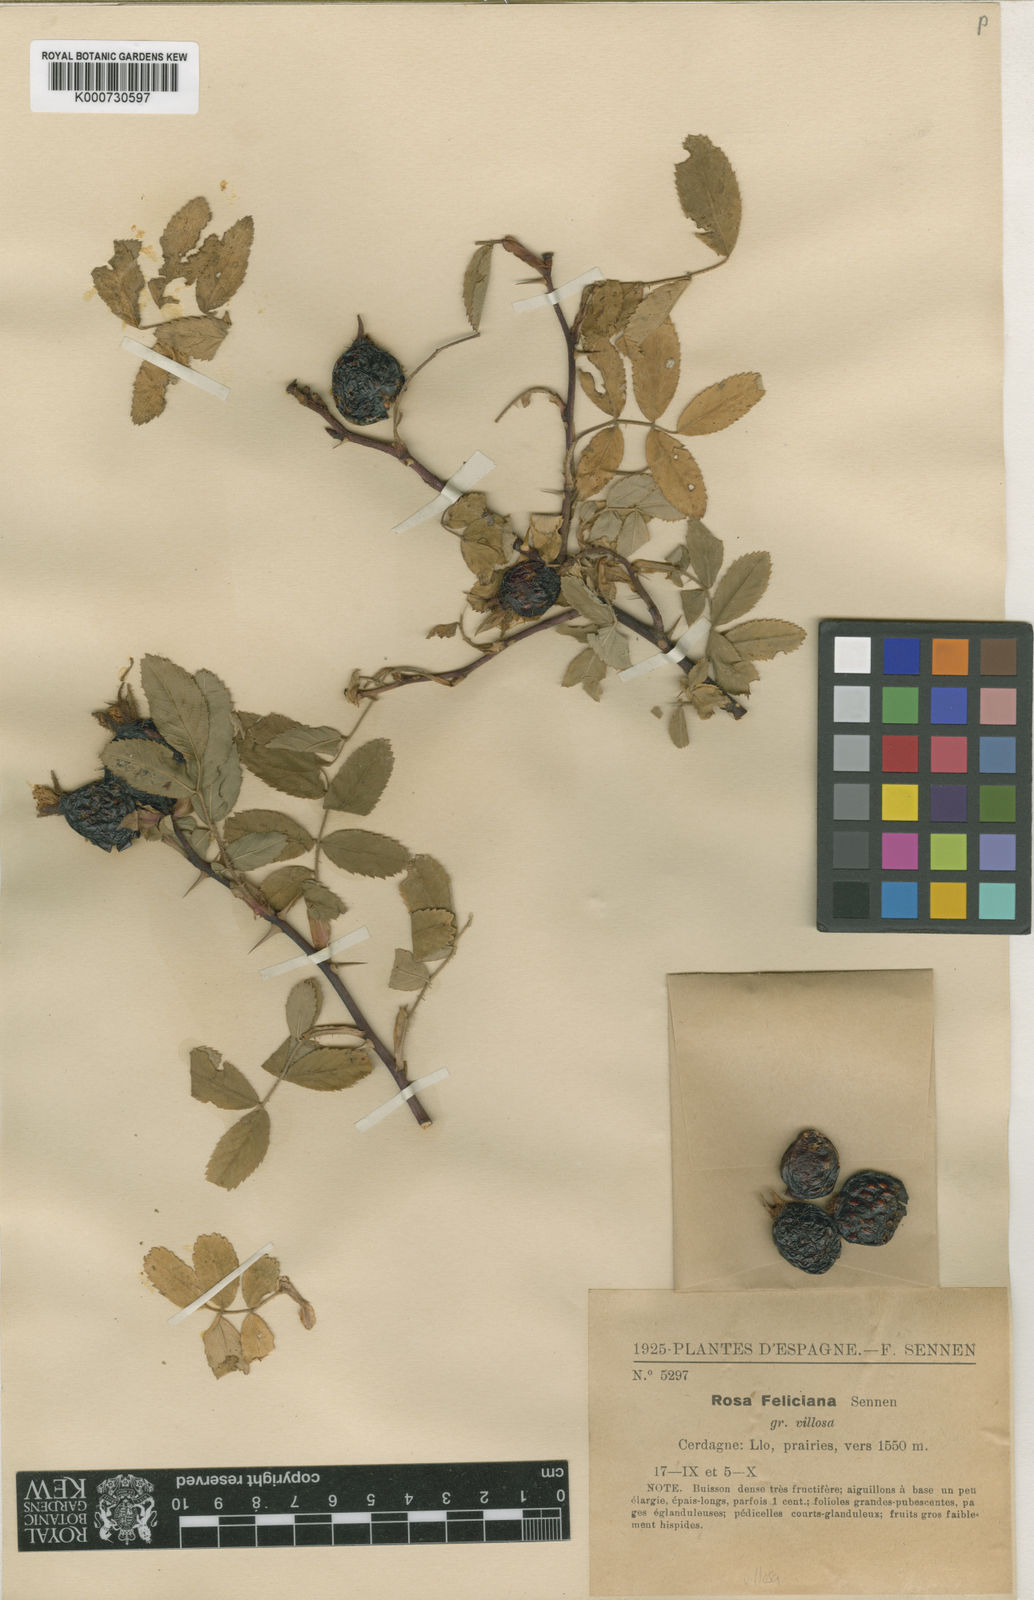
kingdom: Plantae
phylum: Tracheophyta
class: Magnoliopsida
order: Rosales
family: Rosaceae
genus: Rosa
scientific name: Rosa villosa
